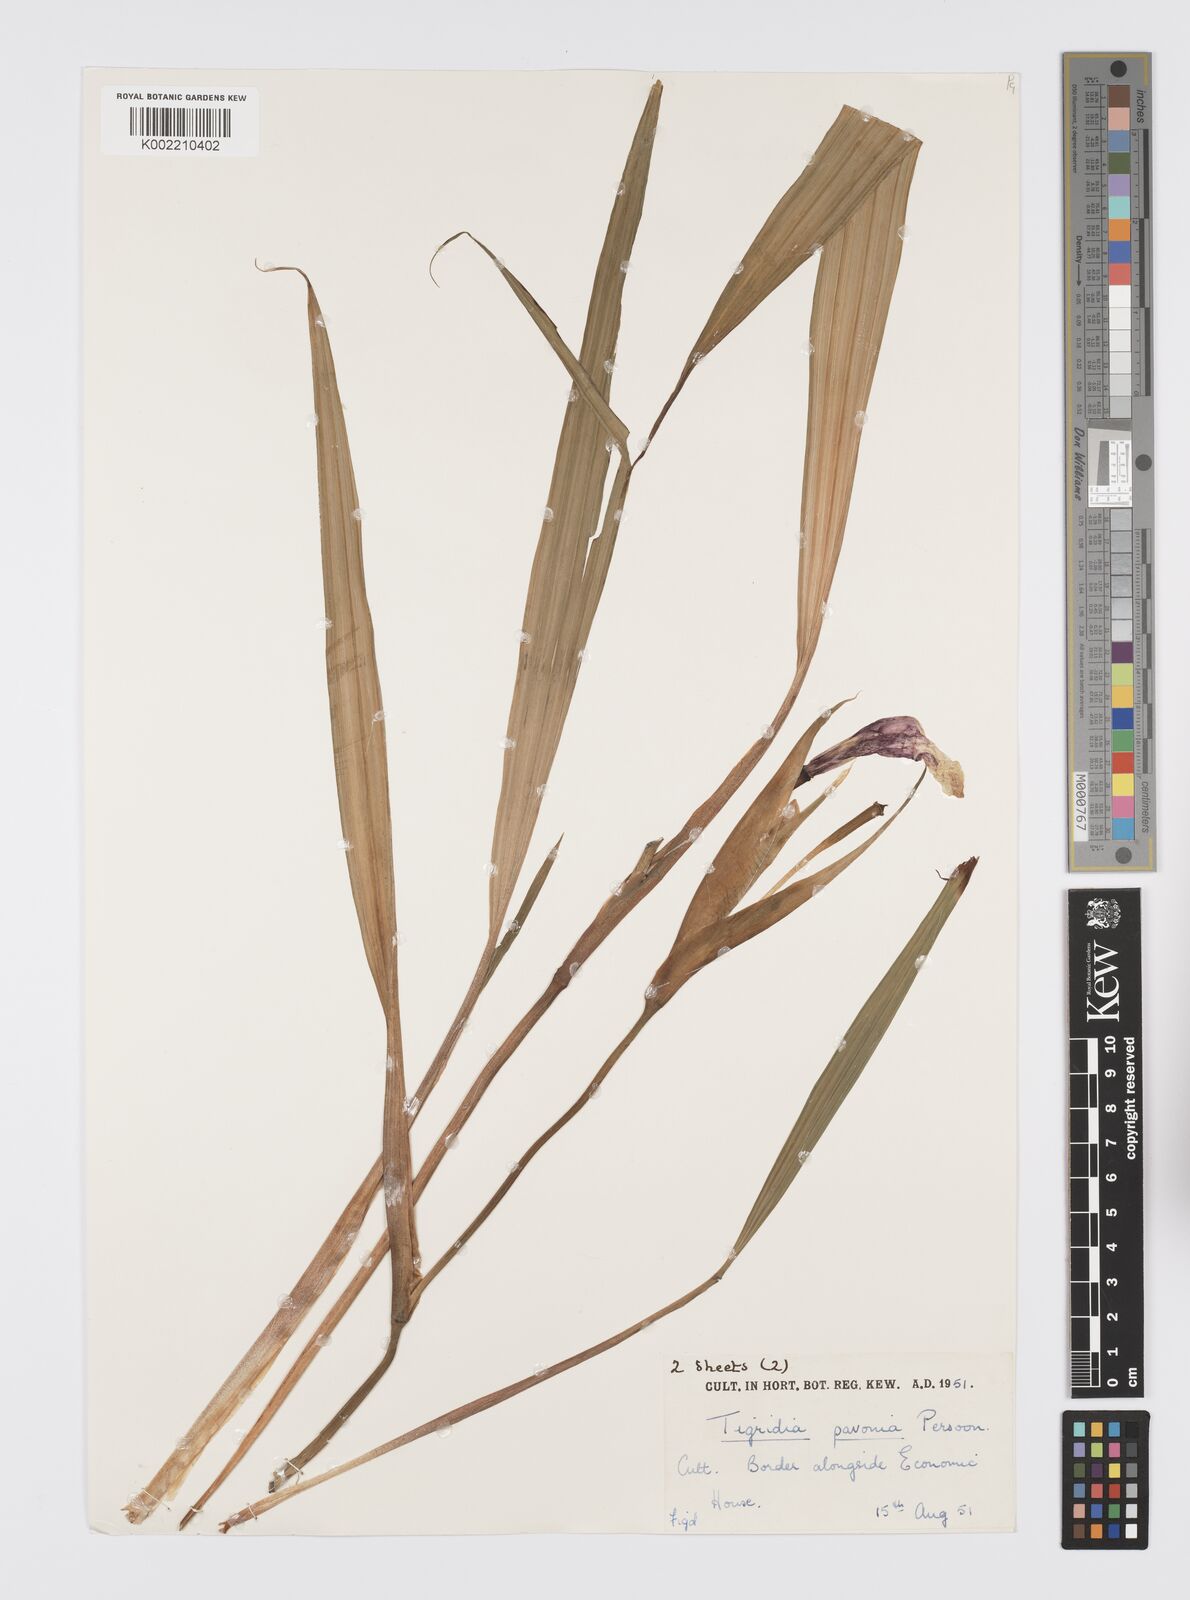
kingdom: Plantae
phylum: Tracheophyta
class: Liliopsida
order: Asparagales
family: Iridaceae
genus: Tigridia
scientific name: Tigridia pavonia
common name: Peacock-flower
